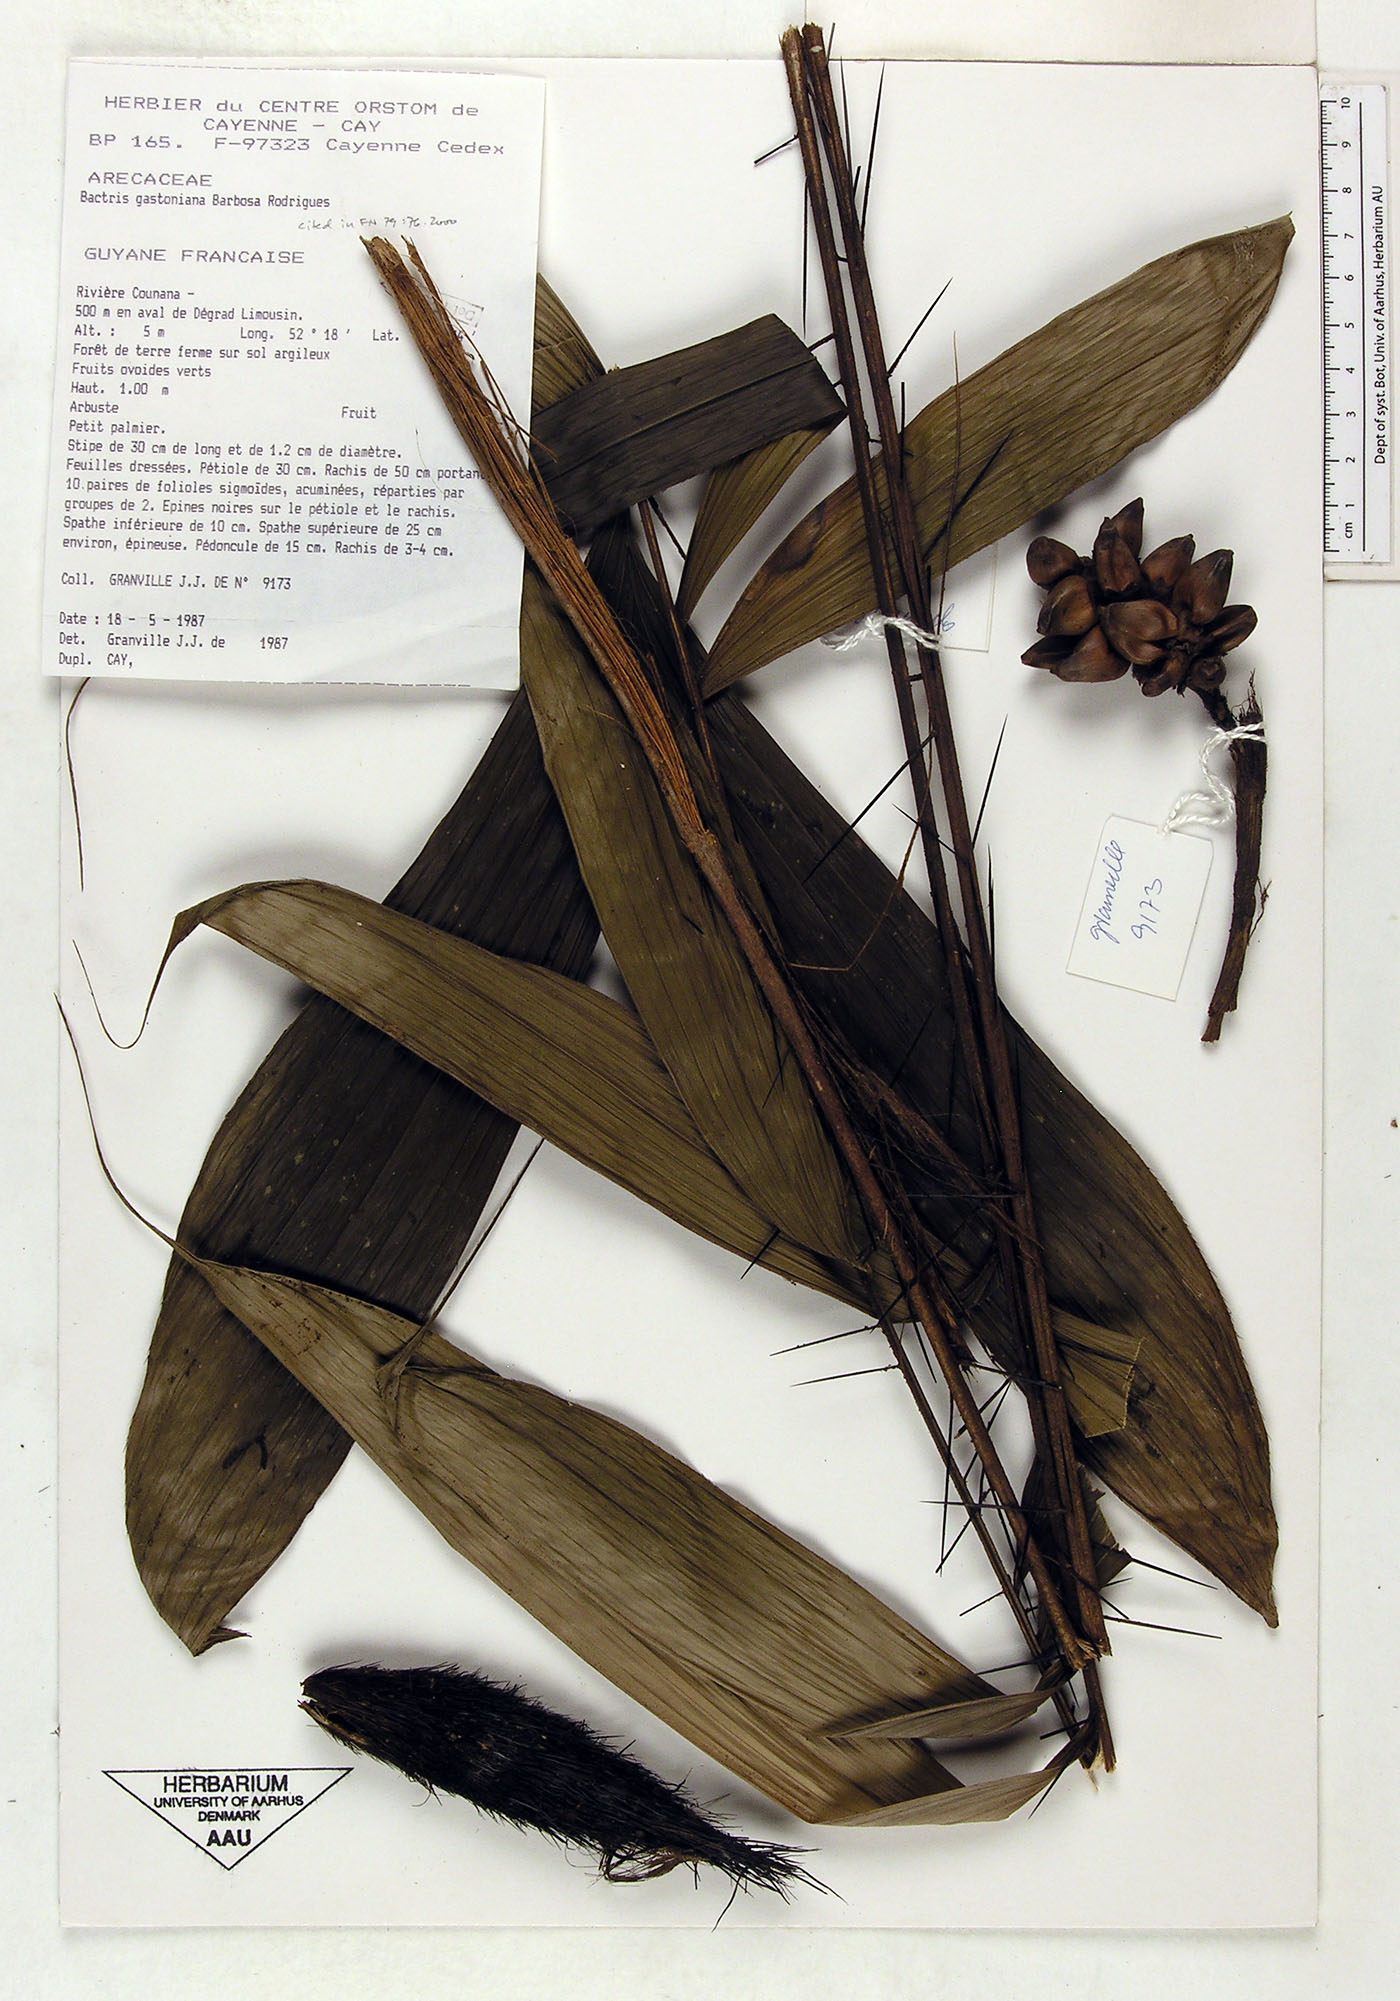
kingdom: Plantae
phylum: Tracheophyta
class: Liliopsida
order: Arecales
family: Arecaceae
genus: Bactris
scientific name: Bactris gastoniana
